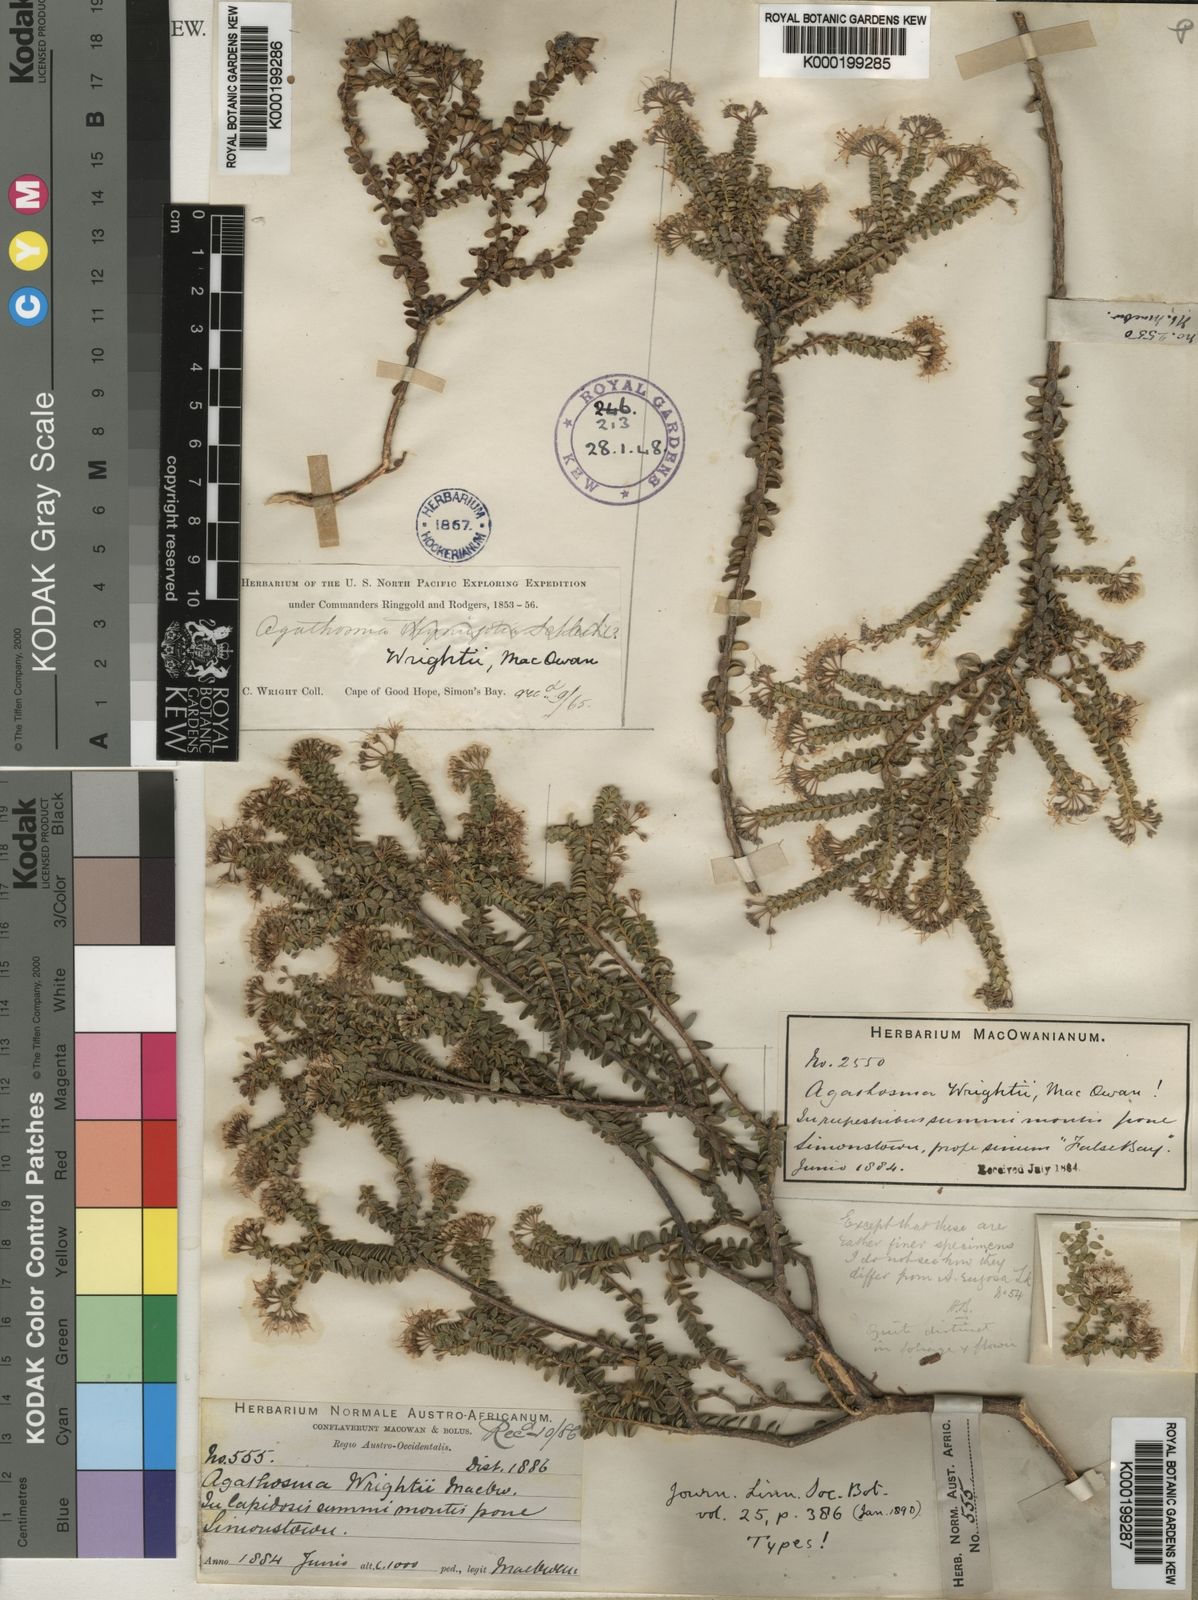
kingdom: Plantae
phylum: Tracheophyta
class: Magnoliopsida
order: Sapindales
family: Rutaceae
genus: Agathosma
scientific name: Agathosma lanceolata
